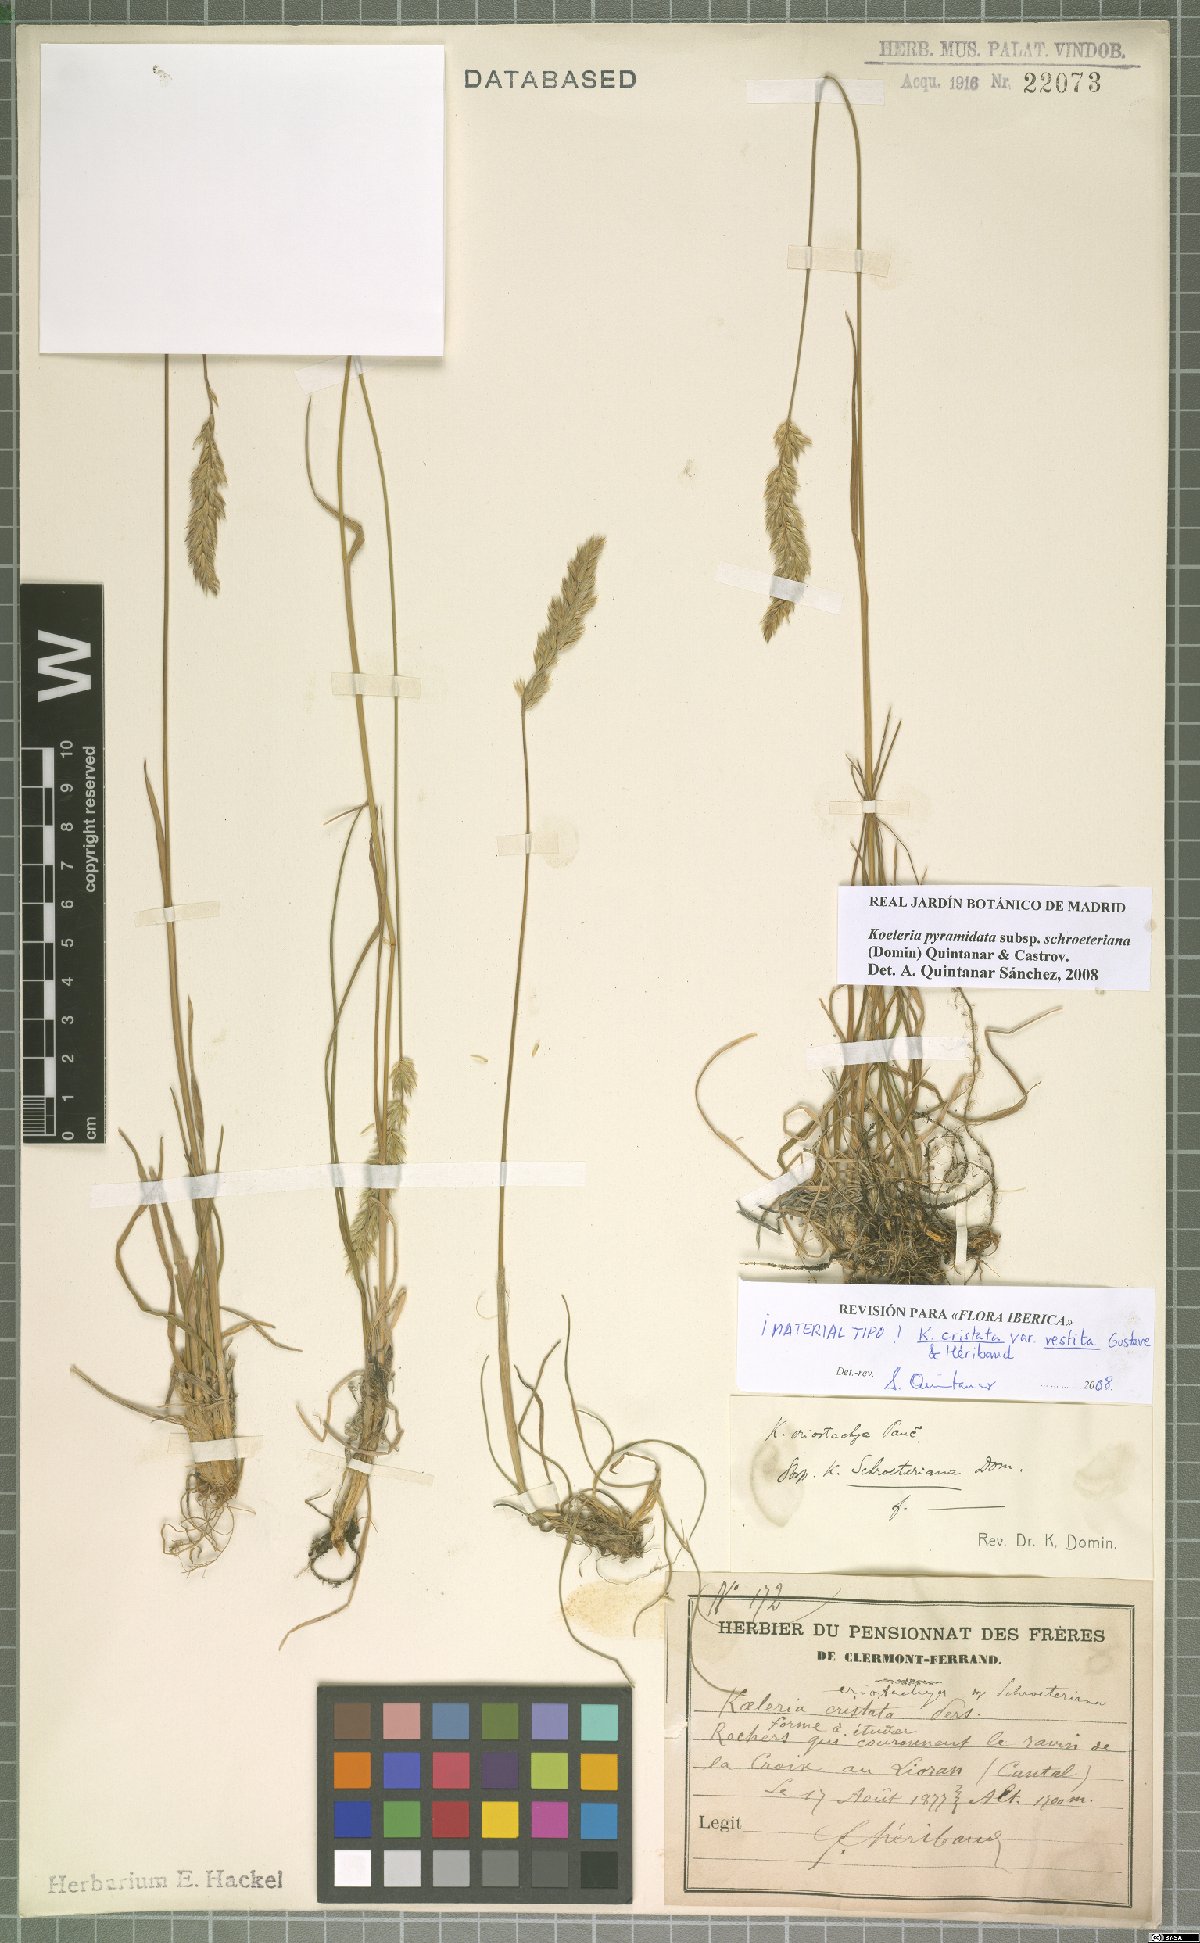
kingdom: Plantae
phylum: Tracheophyta
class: Liliopsida
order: Poales
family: Poaceae
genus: Koeleria
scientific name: Koeleria pyramidata
